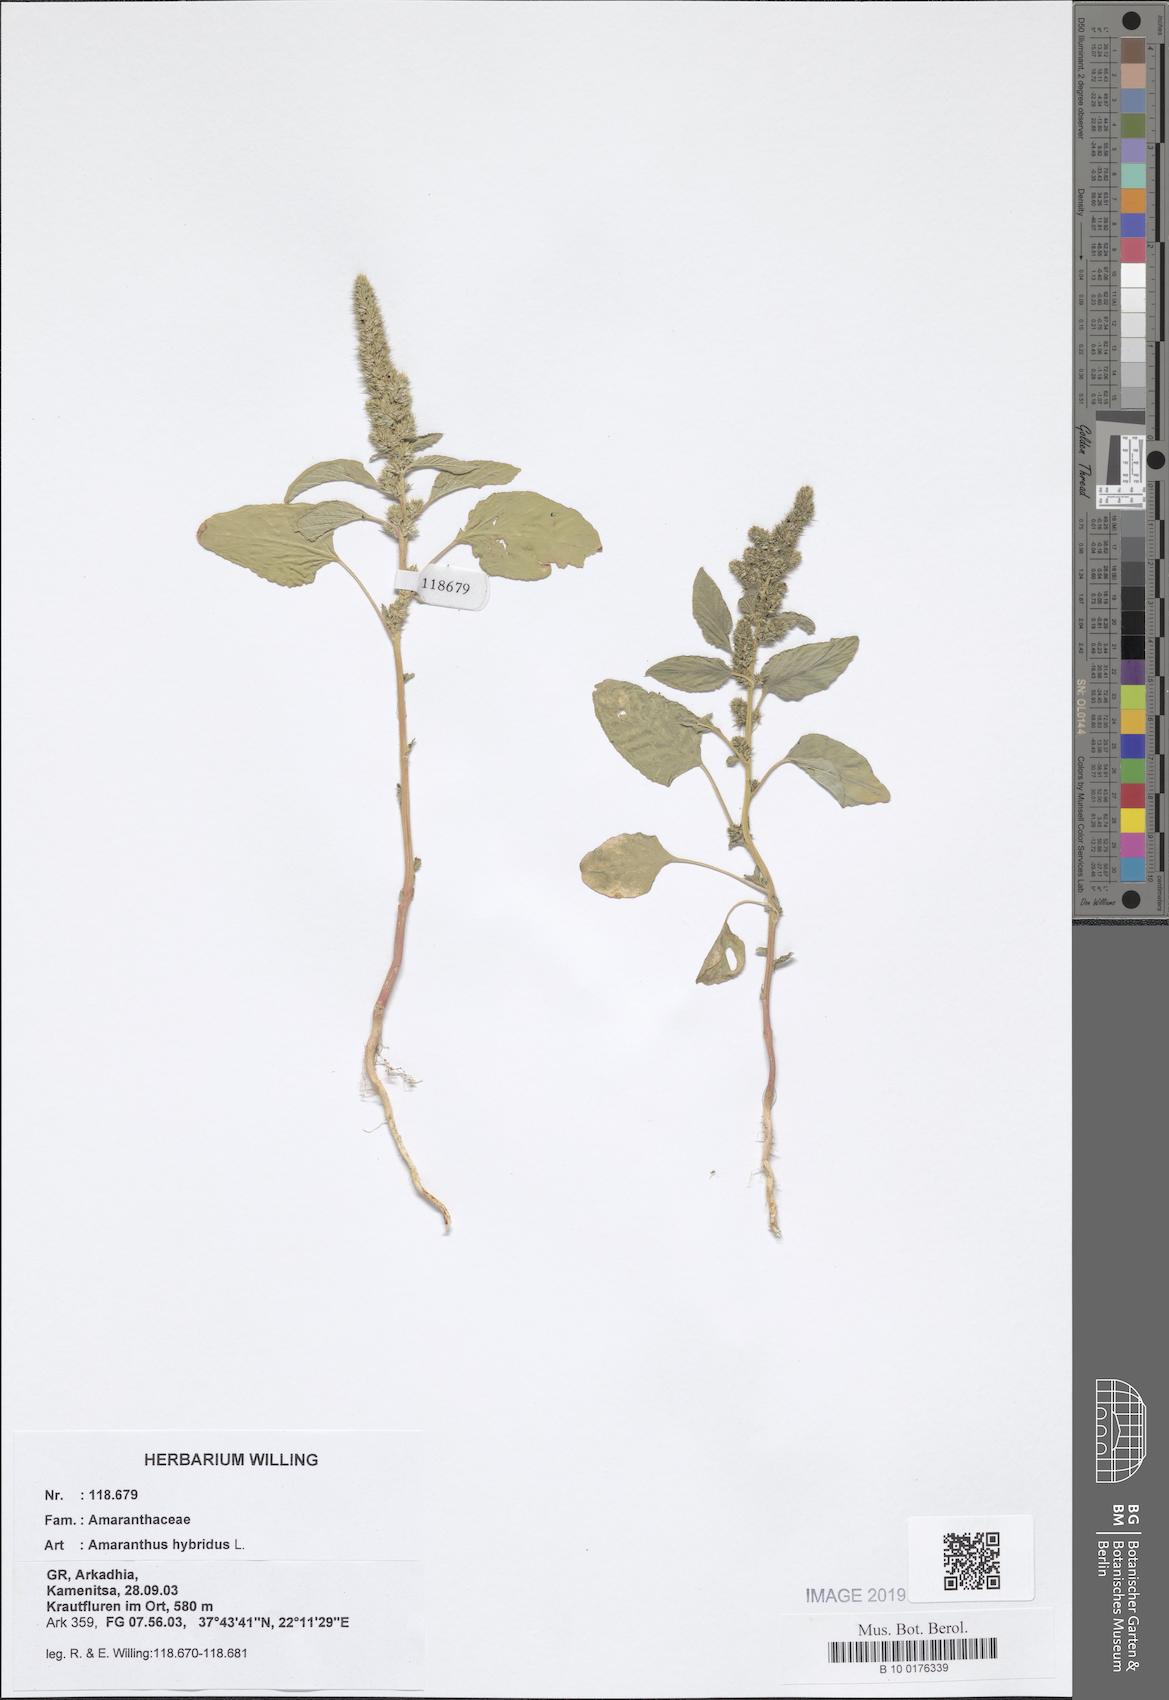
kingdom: Plantae
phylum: Tracheophyta
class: Magnoliopsida
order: Caryophyllales
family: Amaranthaceae
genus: Amaranthus
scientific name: Amaranthus hybridus
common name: Green amaranth
